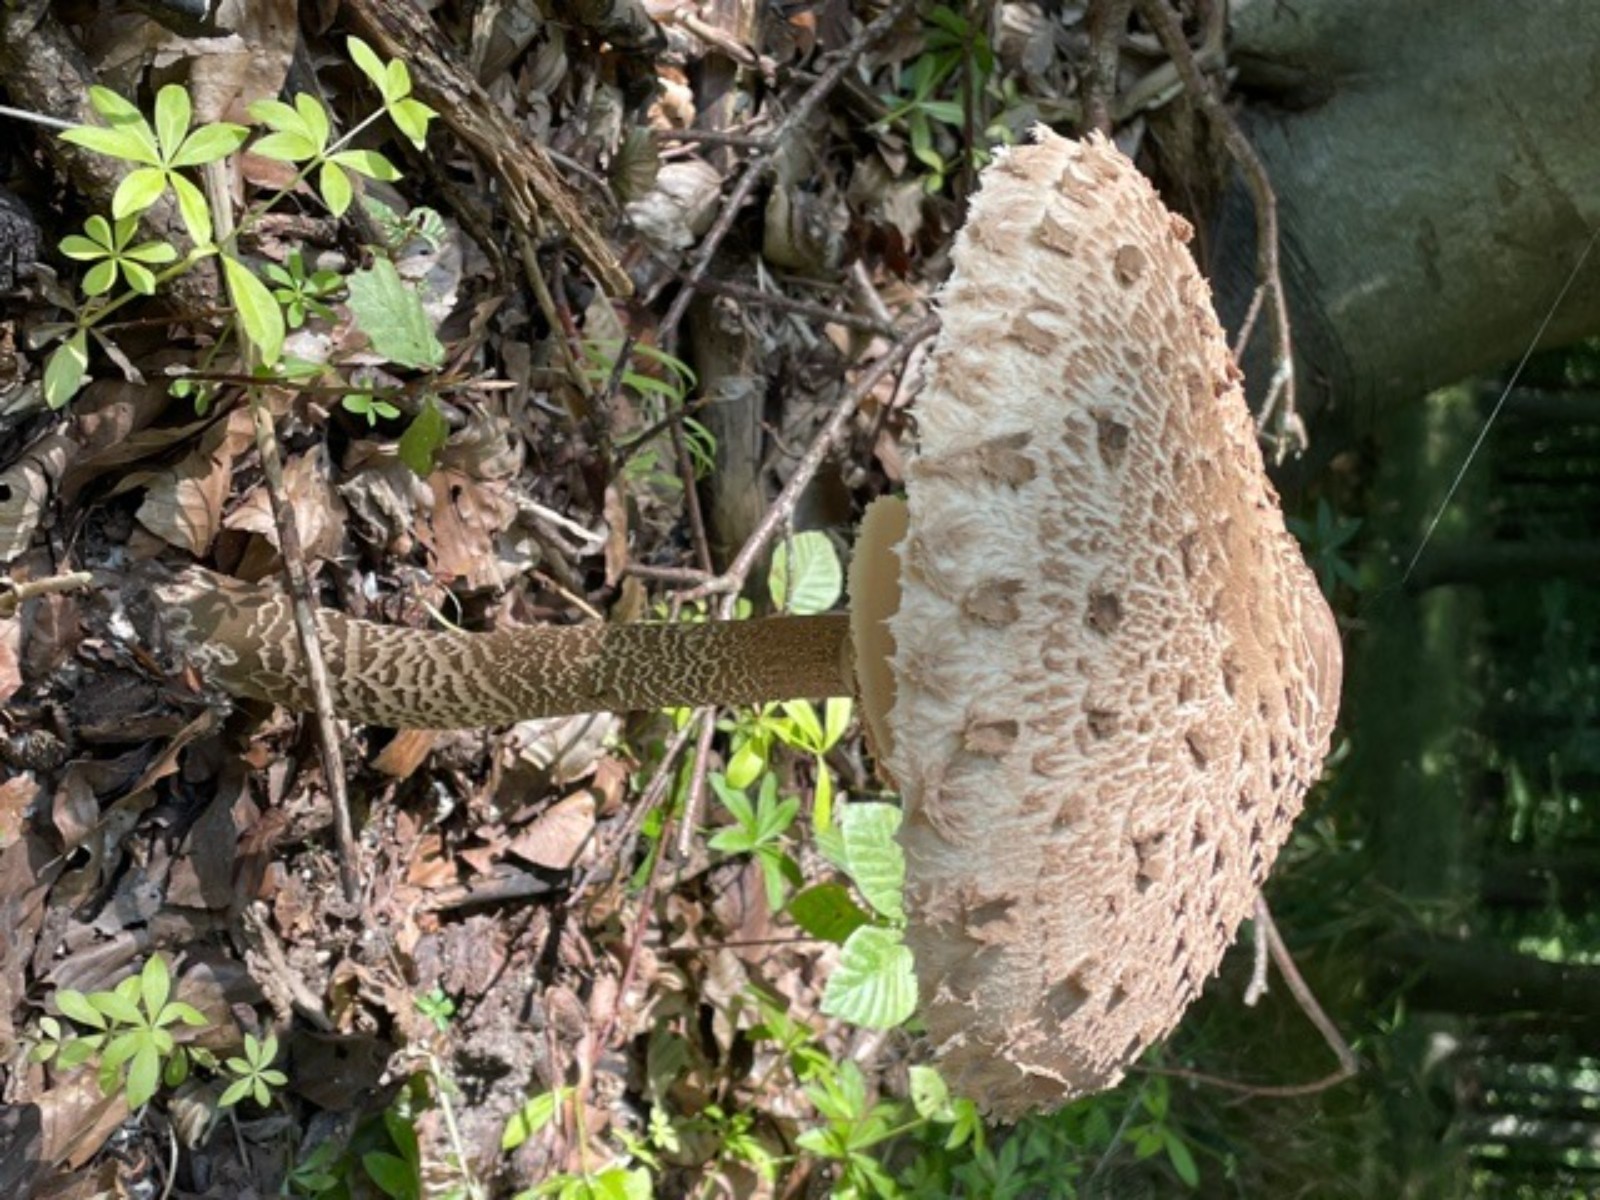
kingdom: Fungi
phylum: Basidiomycota
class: Agaricomycetes
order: Agaricales
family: Agaricaceae
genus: Macrolepiota
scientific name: Macrolepiota procera
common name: stor kæmpeparasolhat
